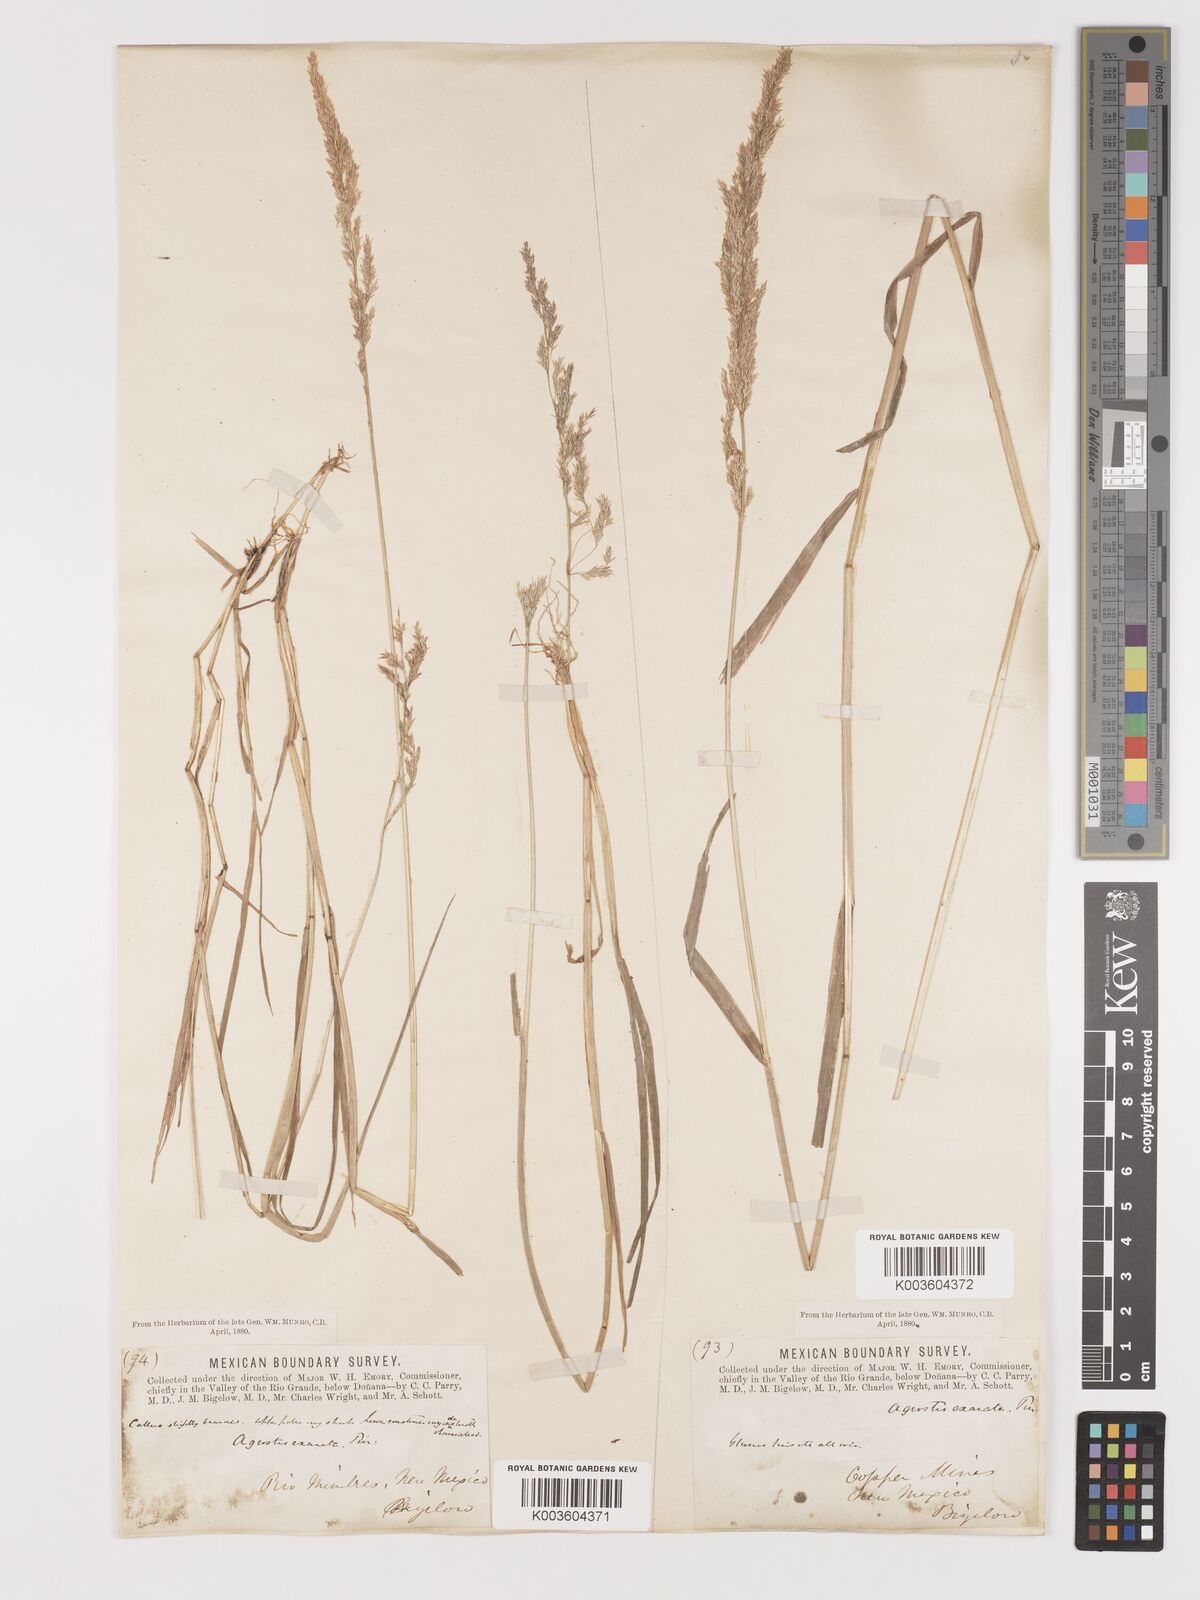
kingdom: Plantae
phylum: Tracheophyta
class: Liliopsida
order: Poales
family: Poaceae
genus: Agrostis
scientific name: Agrostis exarata
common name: Spike bent
